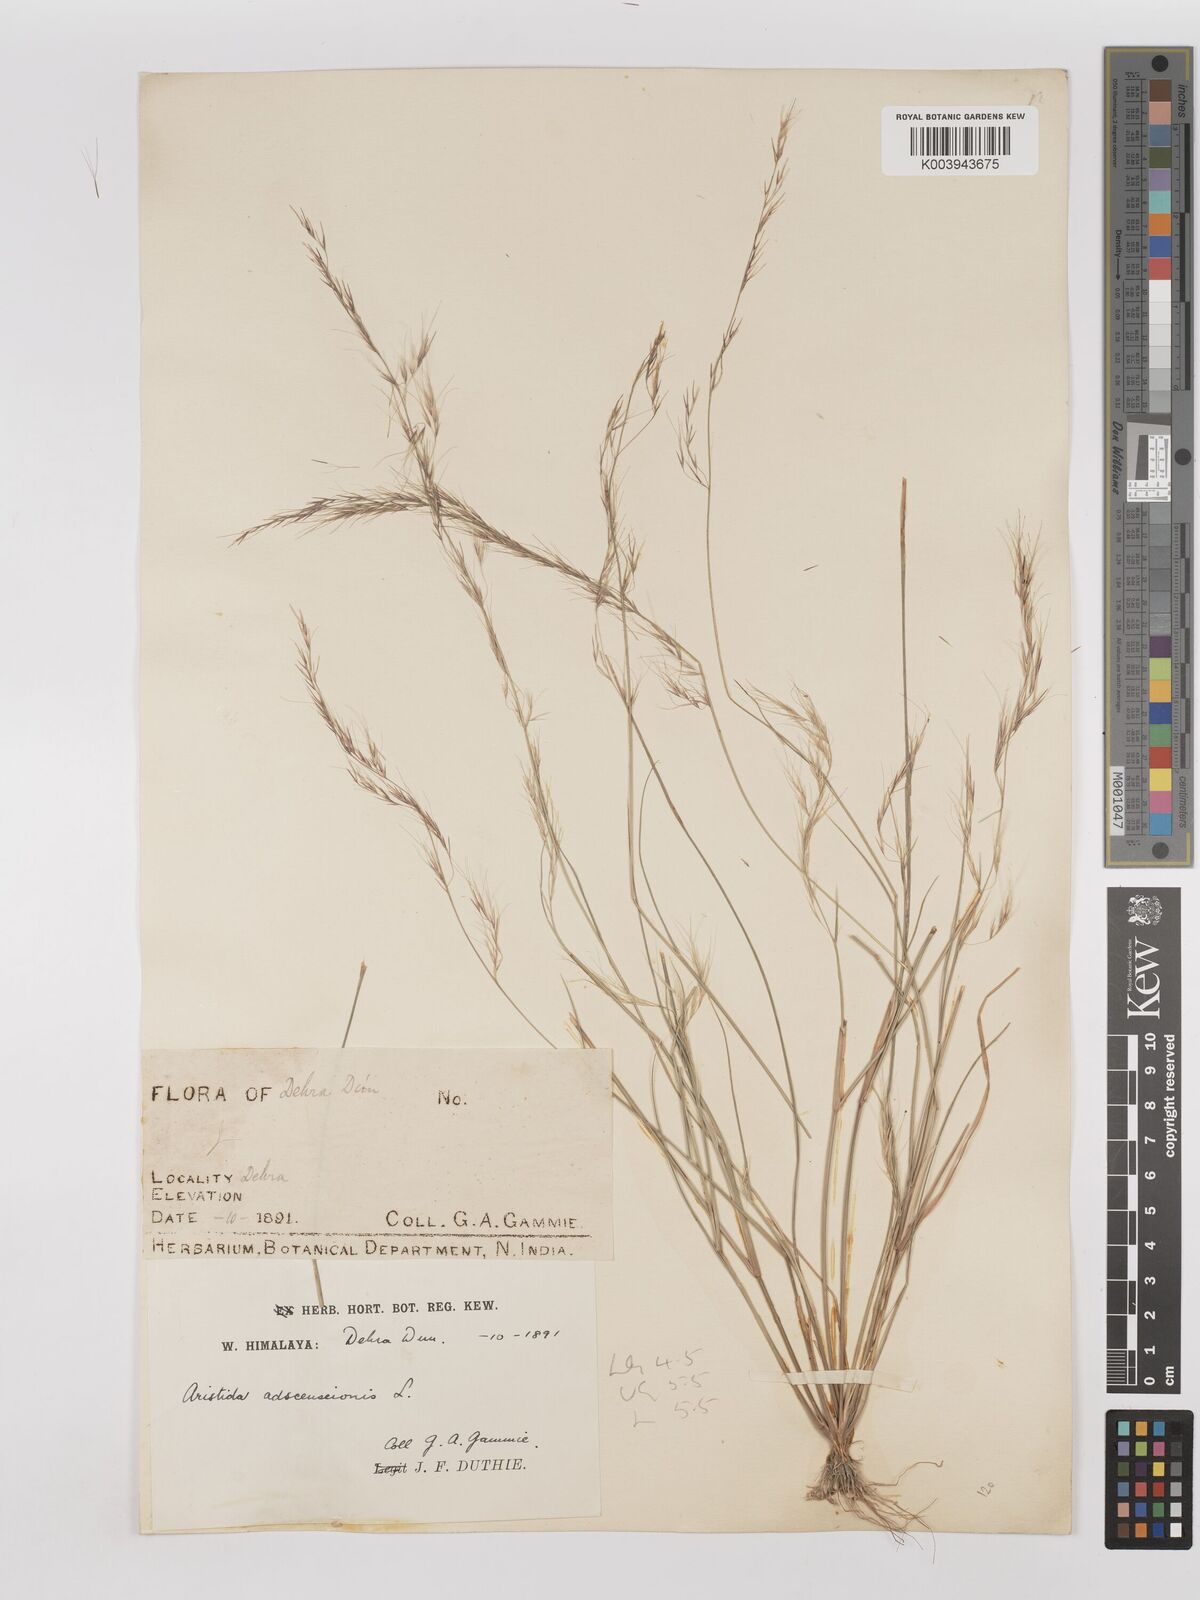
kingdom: Plantae
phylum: Tracheophyta
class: Liliopsida
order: Poales
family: Poaceae
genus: Aristida
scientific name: Aristida adscensionis
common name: Sixweeks threeawn
